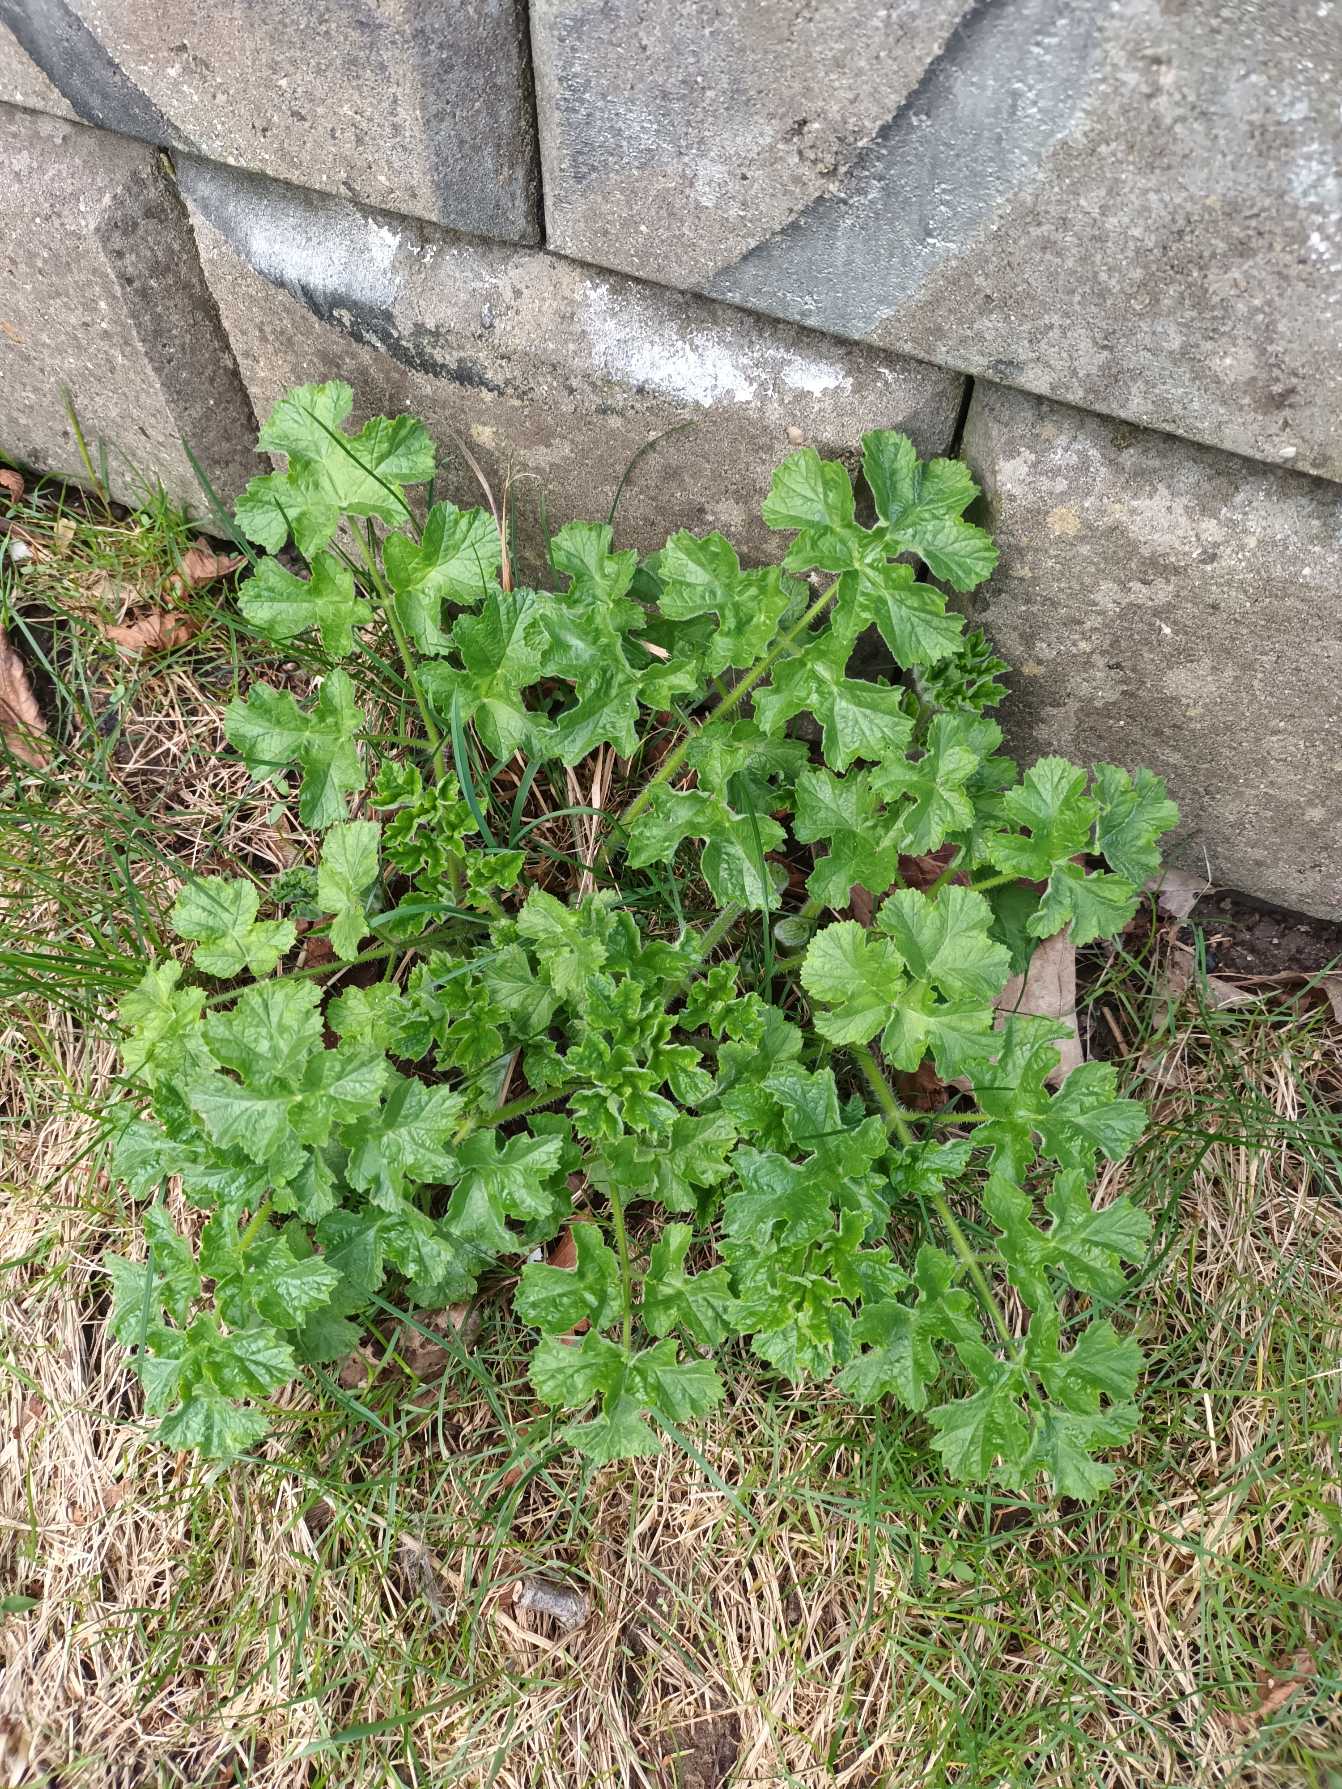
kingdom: Plantae
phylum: Tracheophyta
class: Magnoliopsida
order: Apiales
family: Apiaceae
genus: Heracleum
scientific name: Heracleum sphondylium
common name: Almindelig bjørneklo
